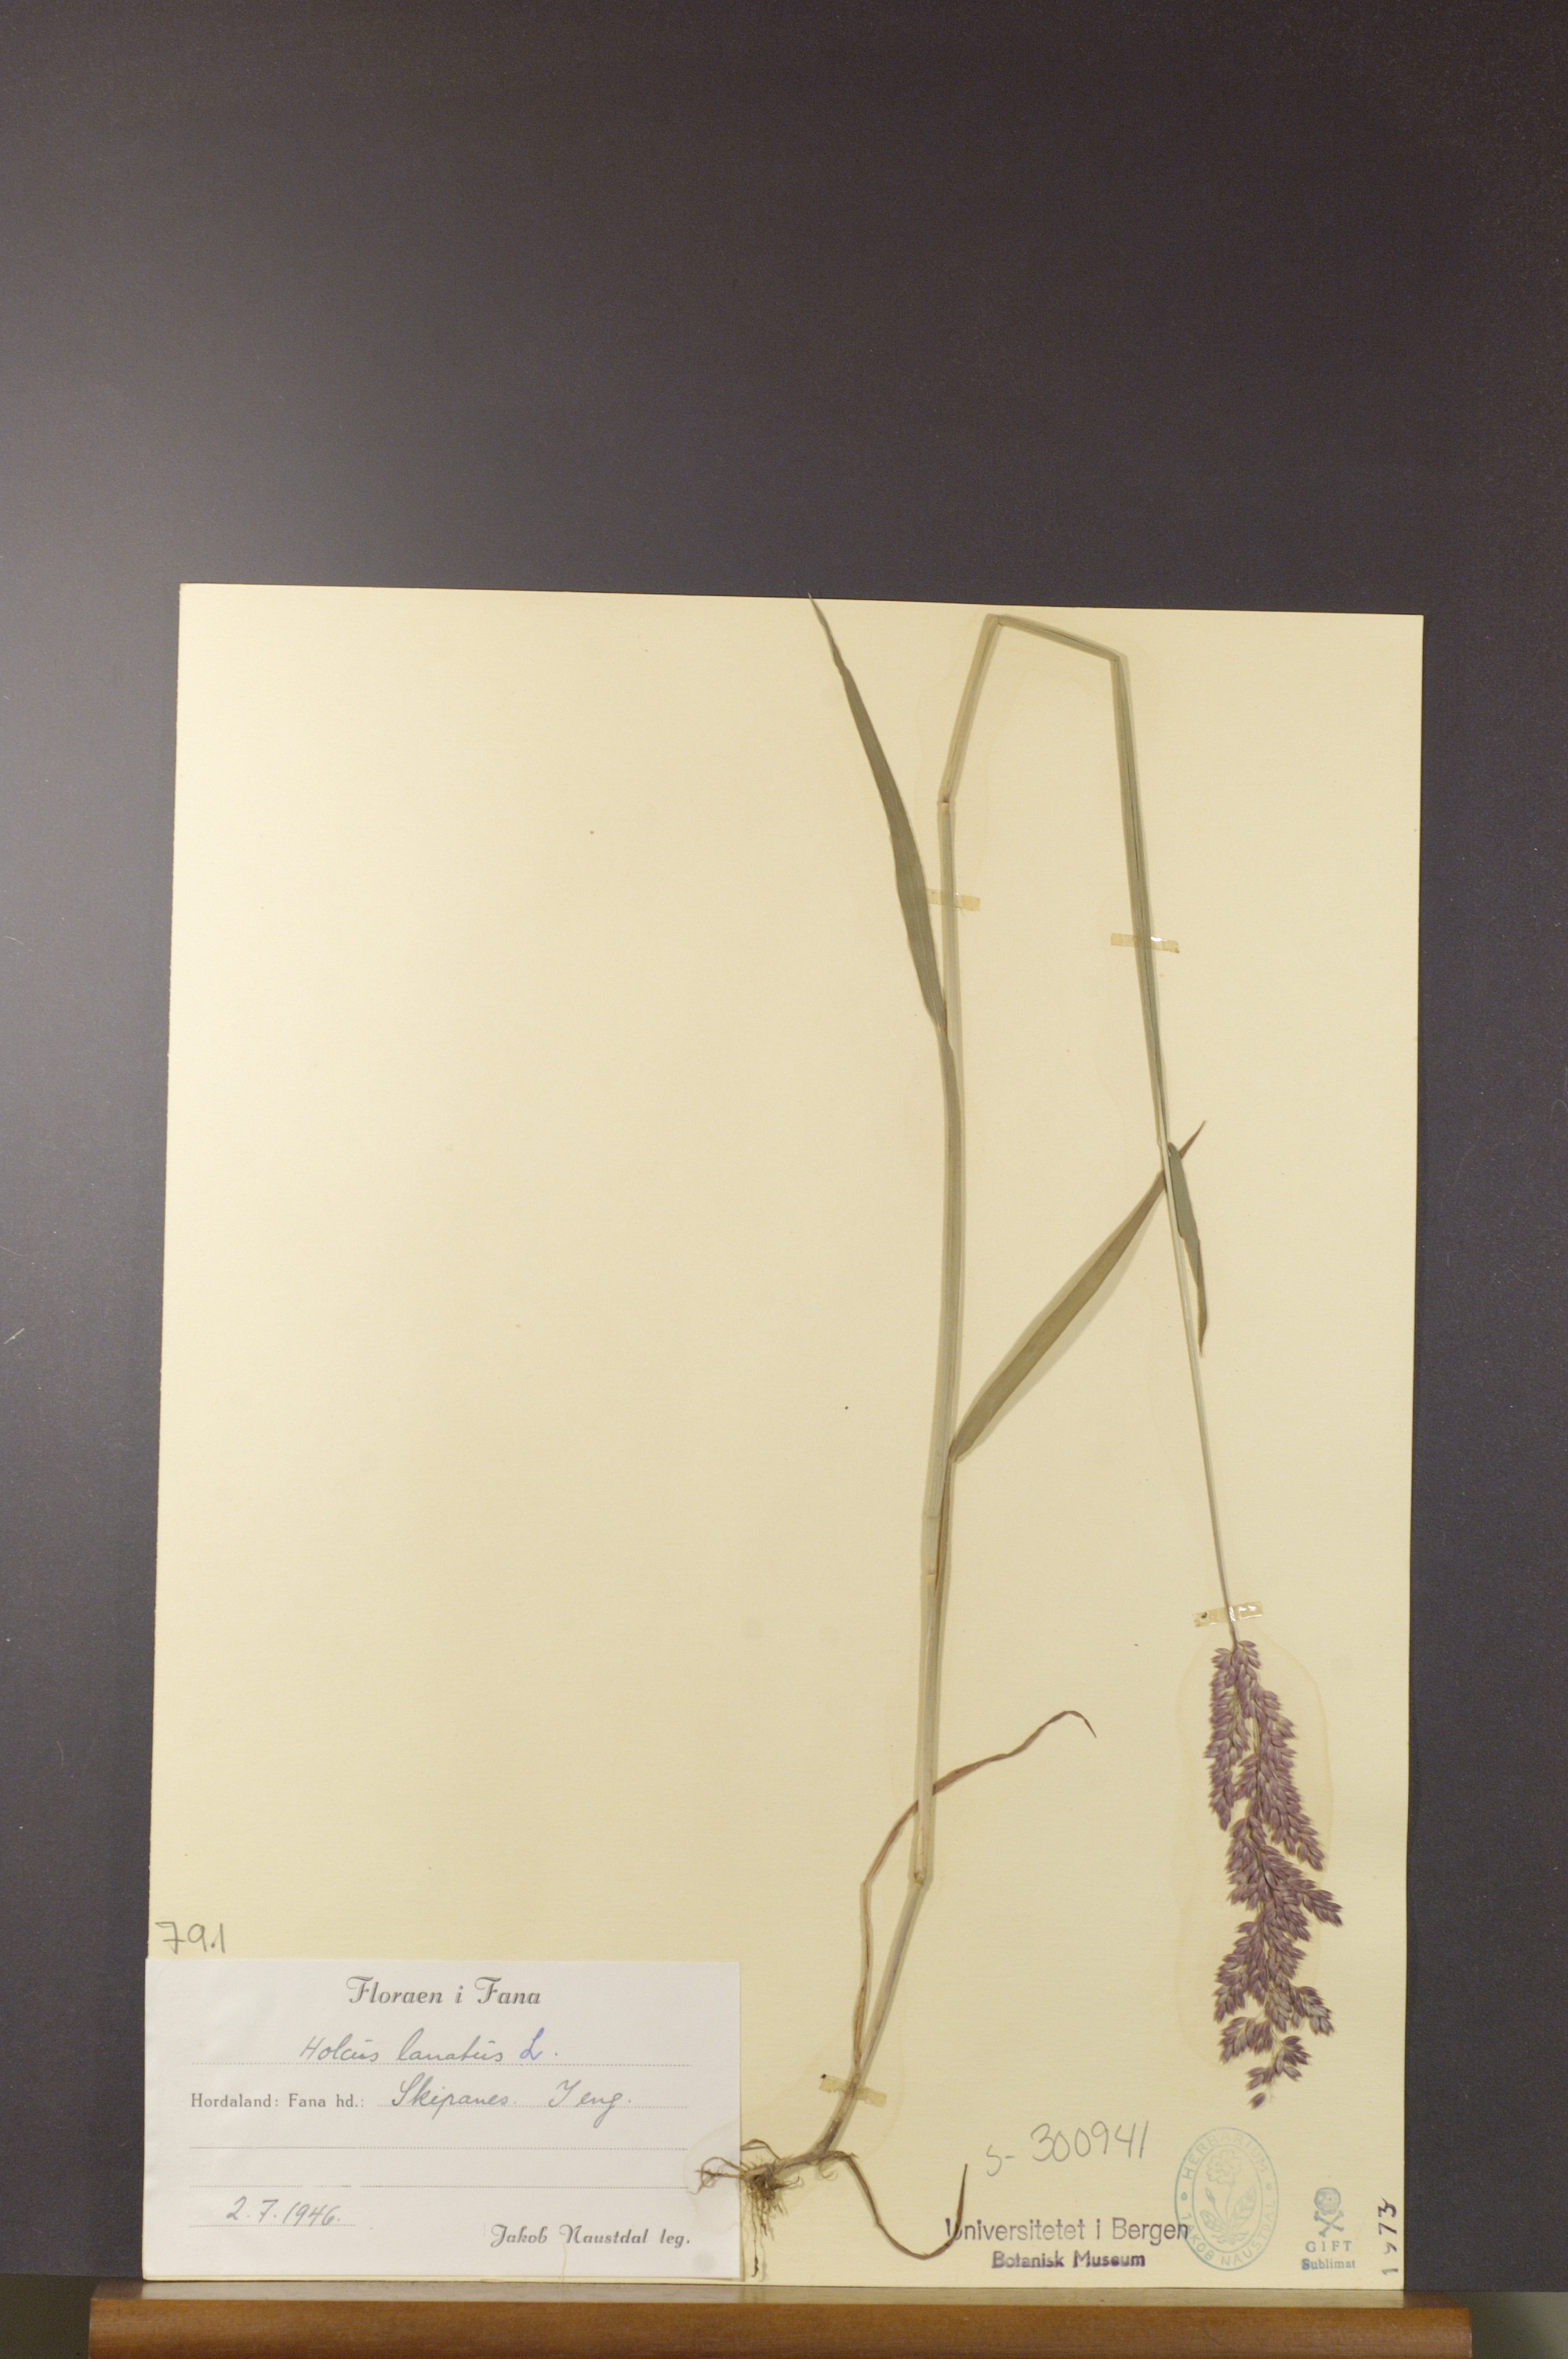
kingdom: Plantae
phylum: Tracheophyta
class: Liliopsida
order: Poales
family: Poaceae
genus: Holcus
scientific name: Holcus lanatus
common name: Yorkshire-fog
